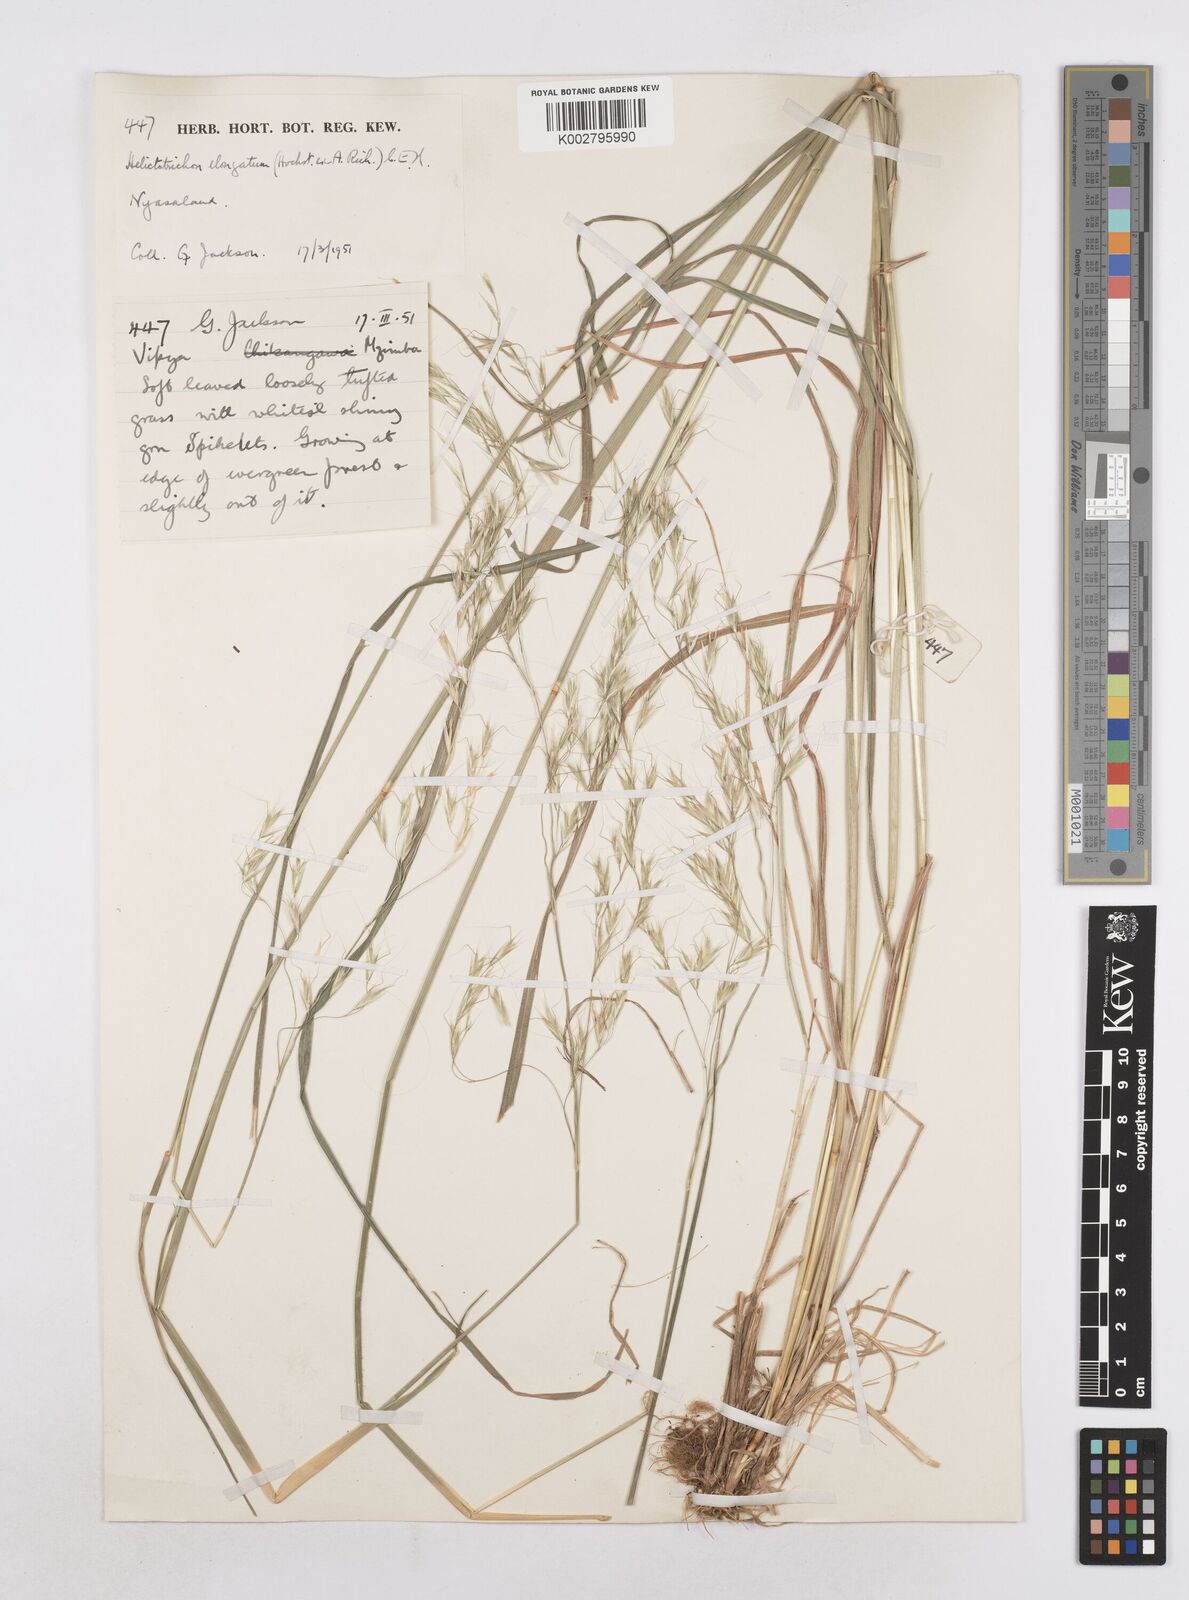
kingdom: Plantae
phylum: Tracheophyta
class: Liliopsida
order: Poales
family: Poaceae
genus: Trisetopsis
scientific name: Trisetopsis elongata
